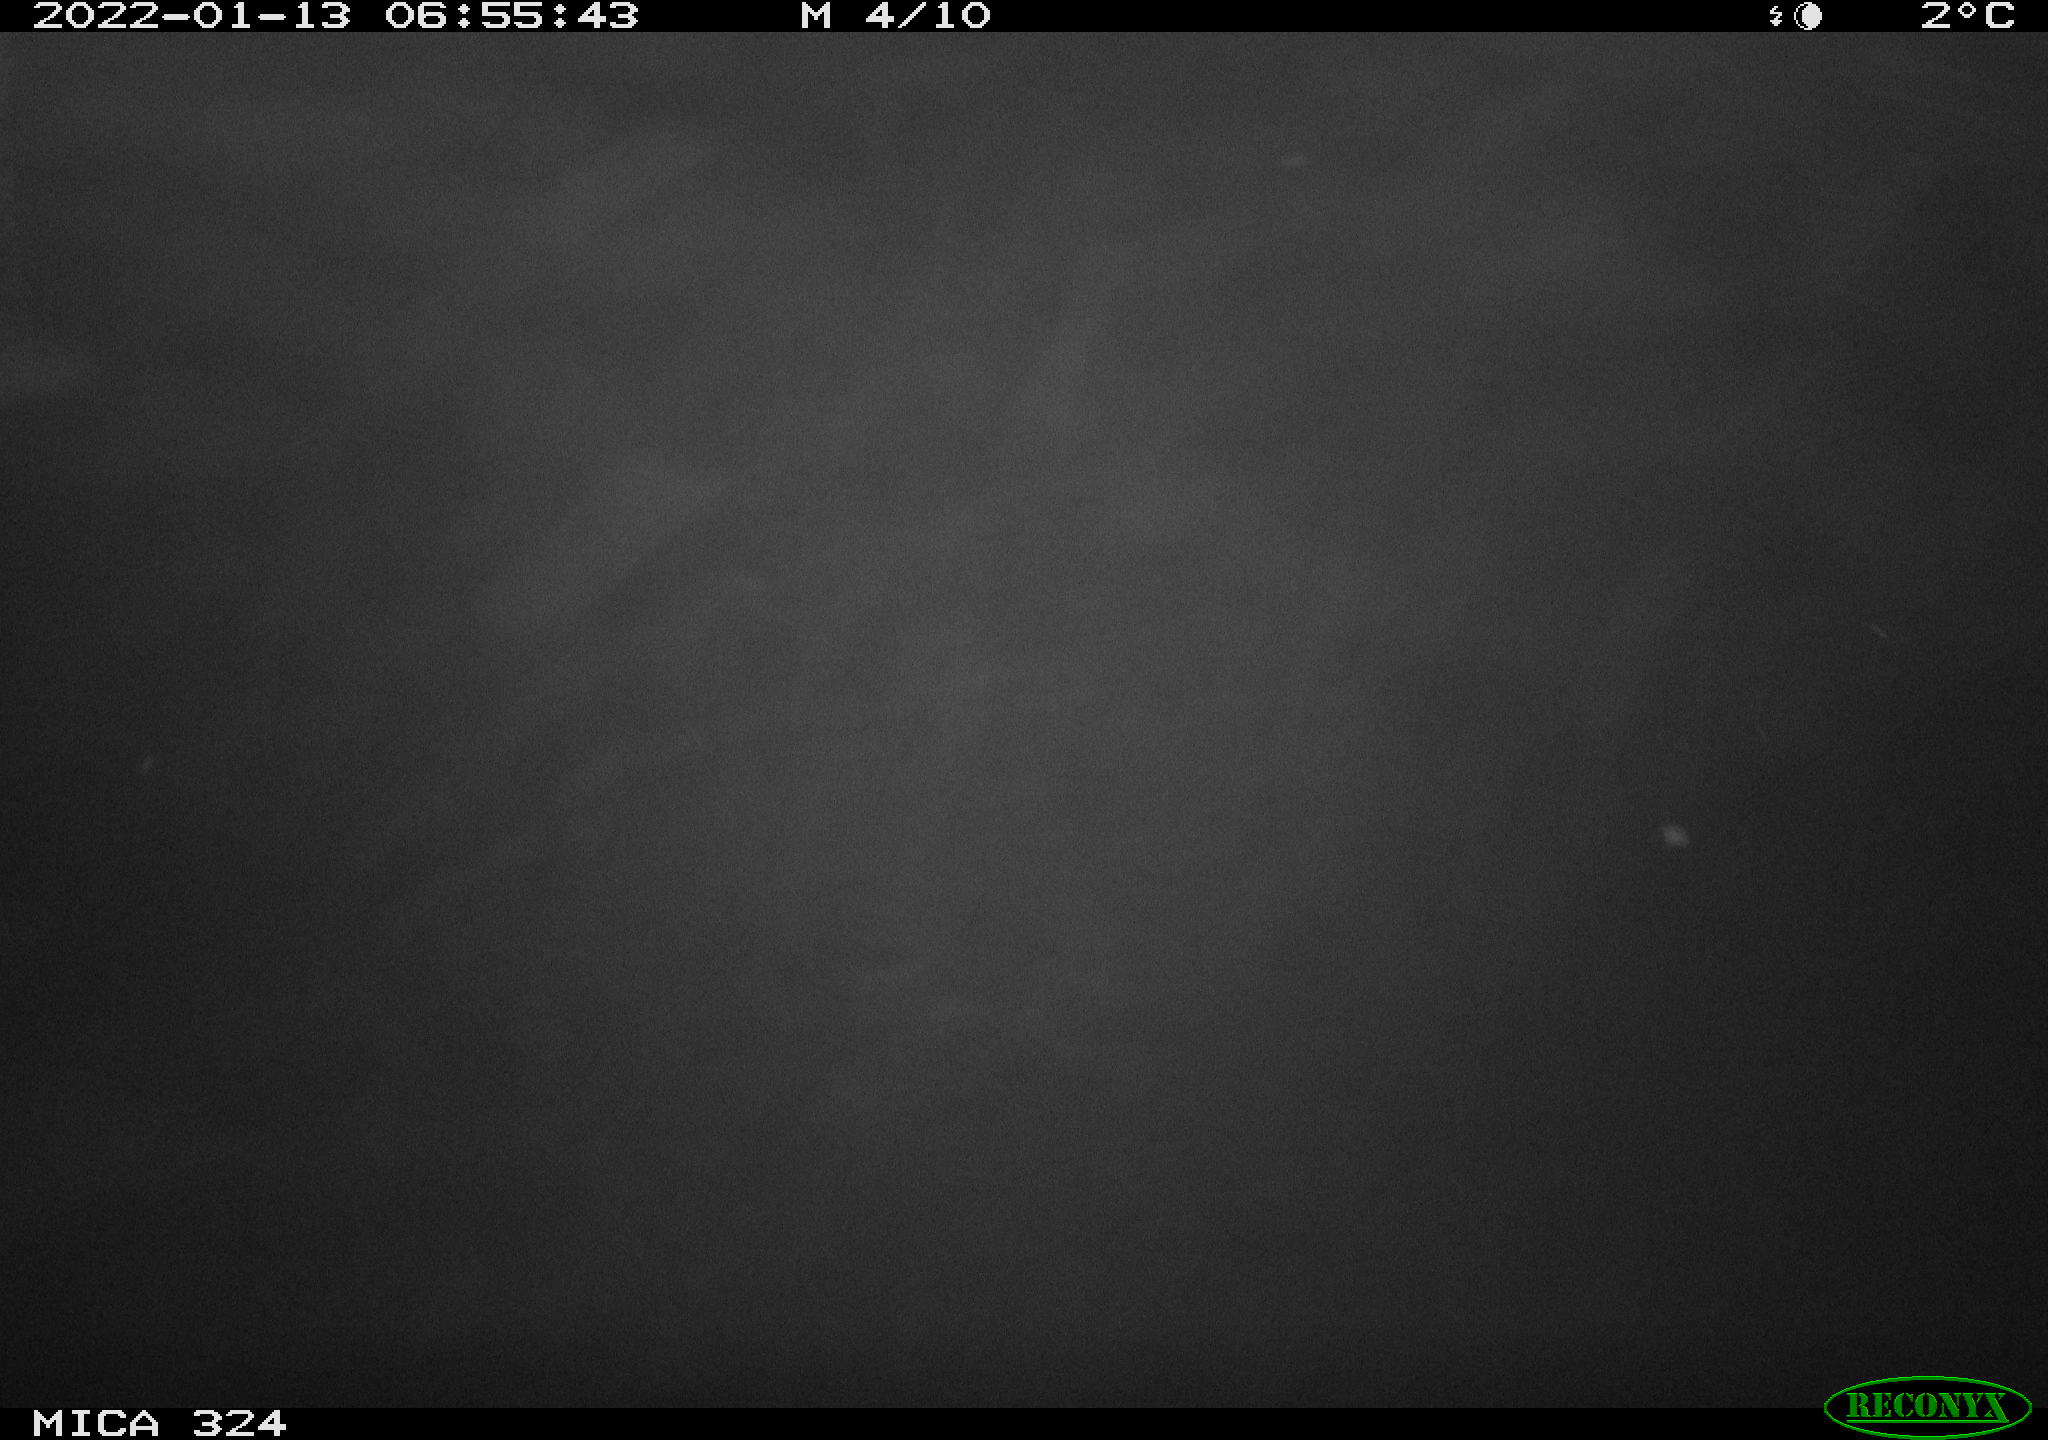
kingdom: Animalia
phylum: Chordata
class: Mammalia
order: Rodentia
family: Cricetidae
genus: Ondatra
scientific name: Ondatra zibethicus
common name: Muskrat
